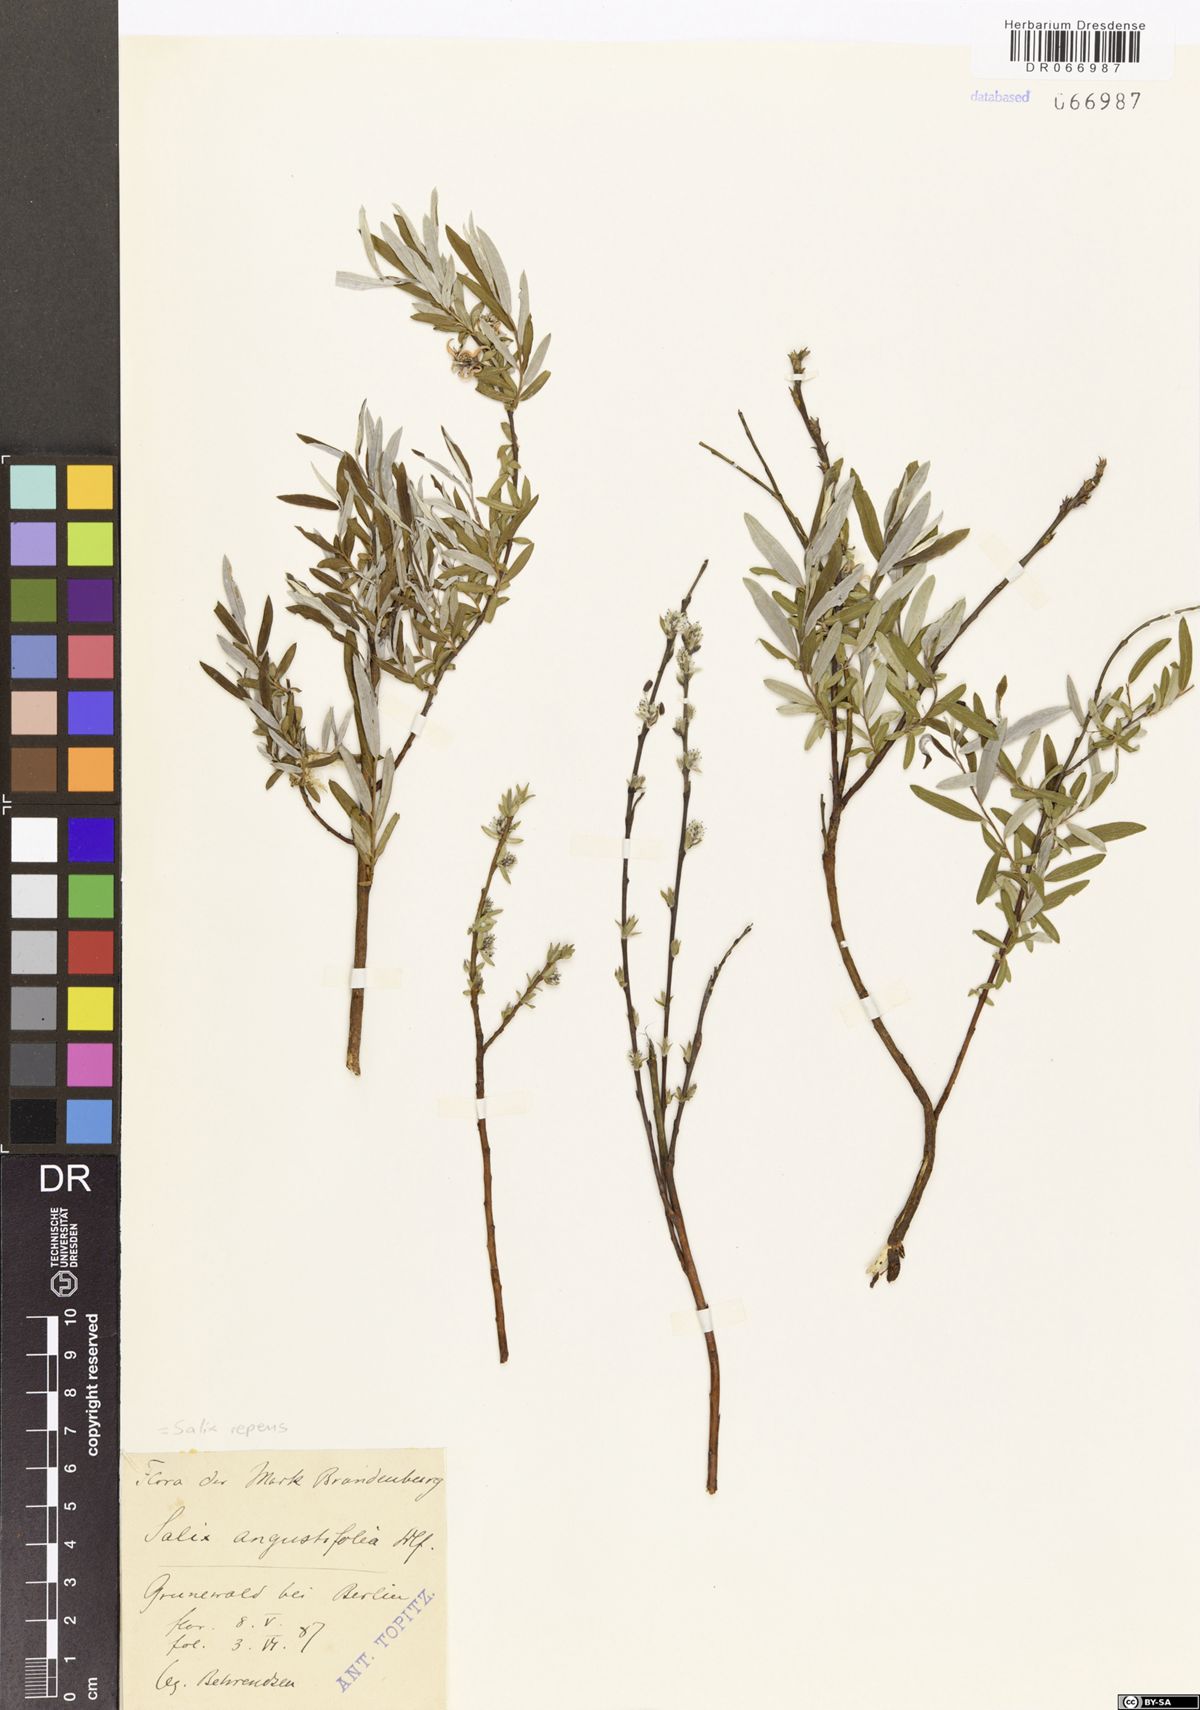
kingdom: Plantae
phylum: Tracheophyta
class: Magnoliopsida
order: Malpighiales
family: Salicaceae
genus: Salix
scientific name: Salix repens
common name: Creeping willow
